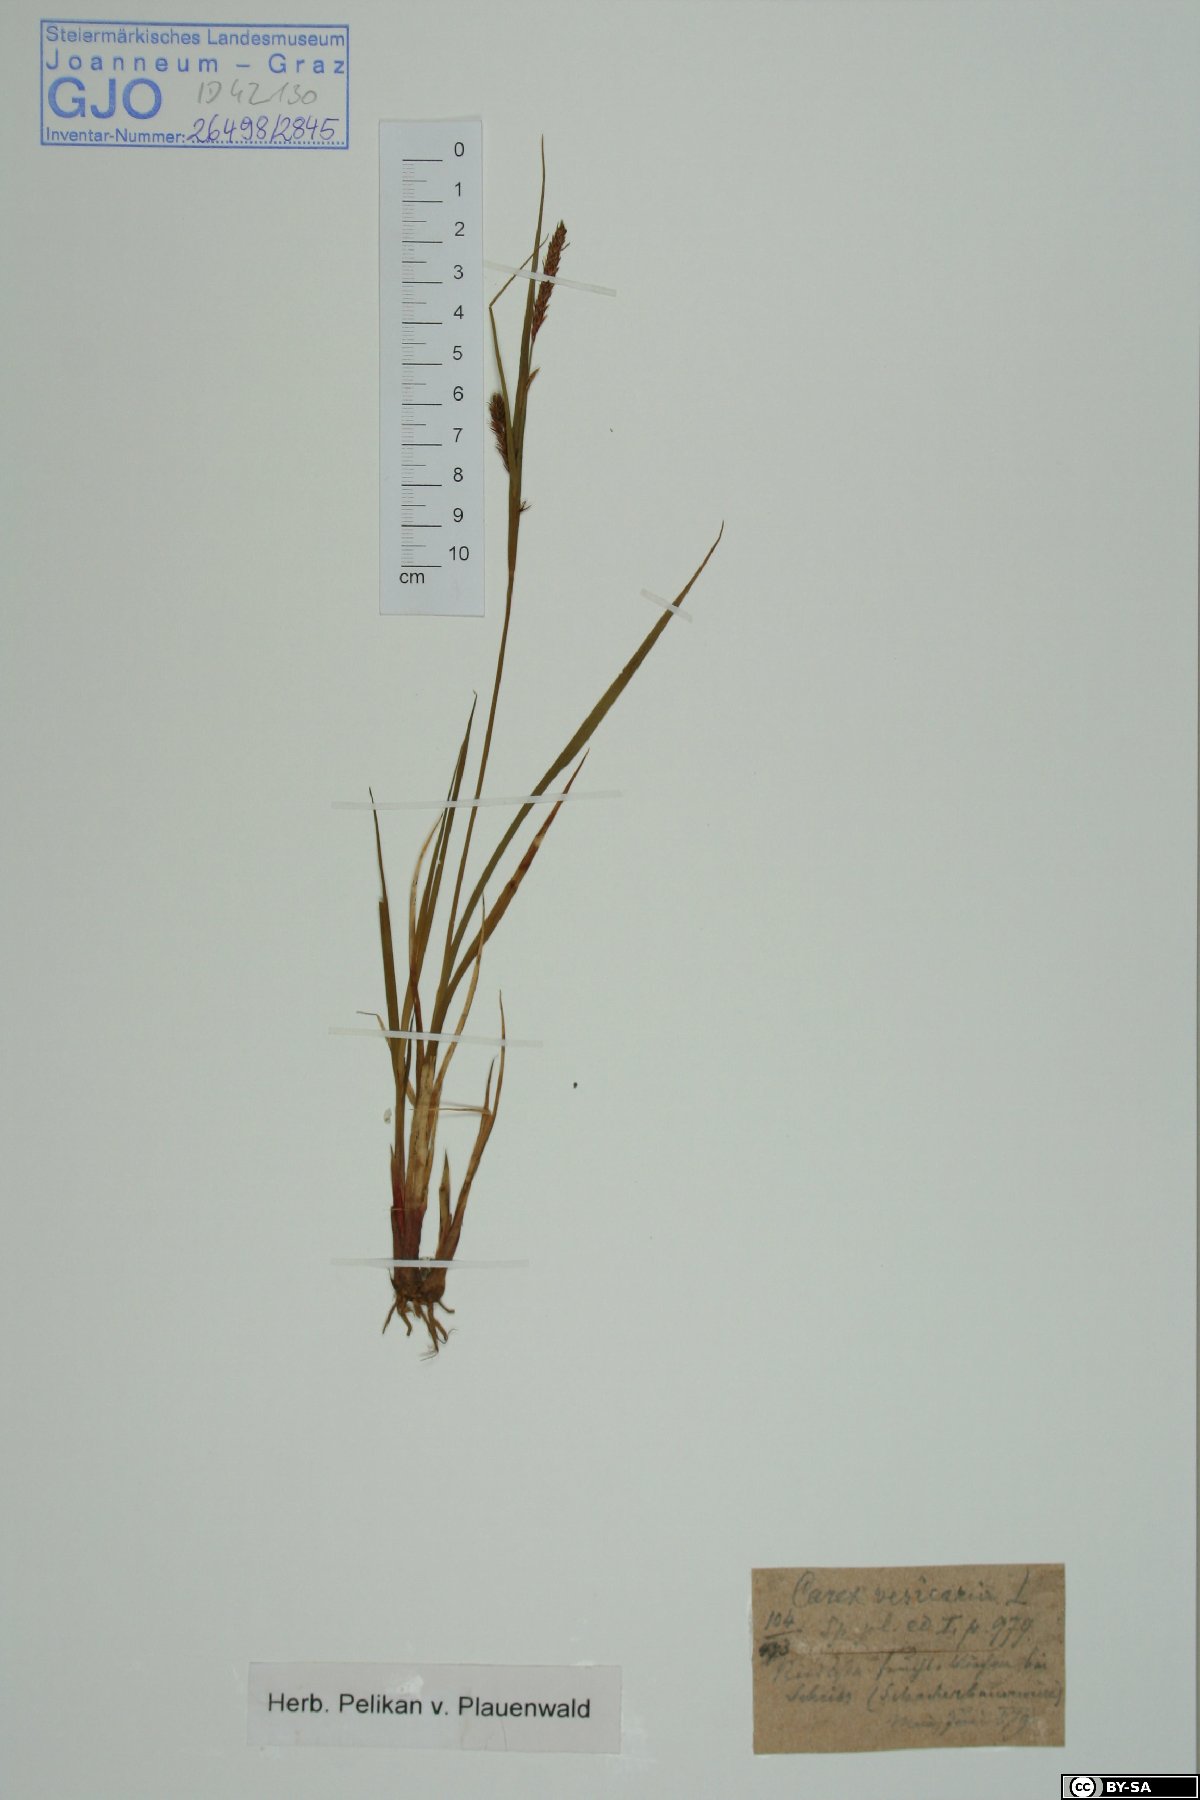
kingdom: Plantae
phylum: Tracheophyta
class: Liliopsida
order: Poales
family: Cyperaceae
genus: Carex
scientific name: Carex vesicaria
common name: Bladder-sedge
